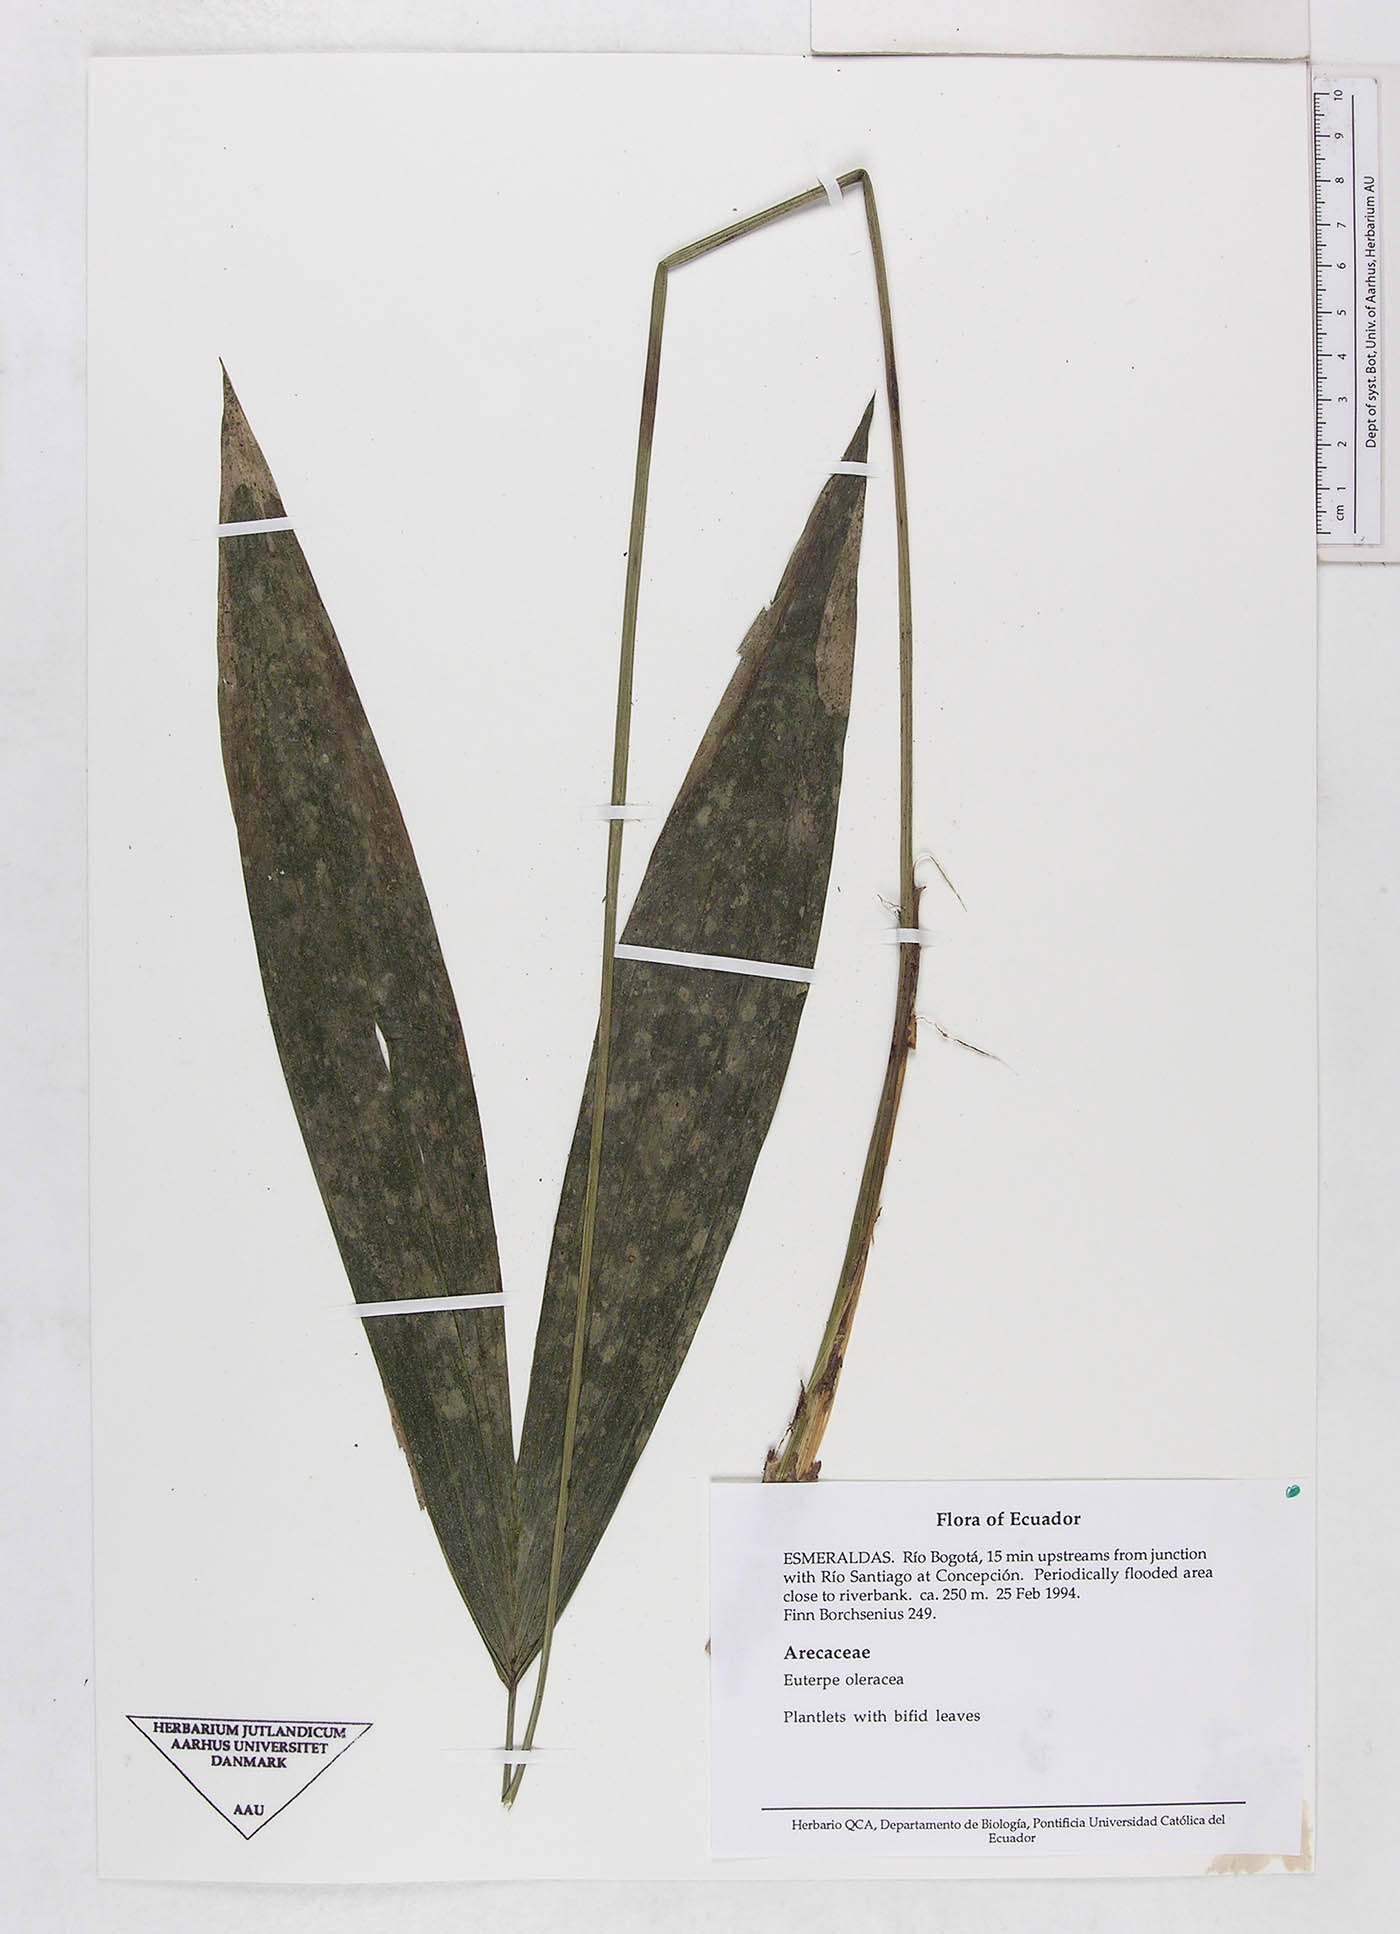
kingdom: Plantae
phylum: Tracheophyta
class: Liliopsida
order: Arecales
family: Arecaceae
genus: Euterpe
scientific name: Euterpe oleracea
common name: Assai palm
